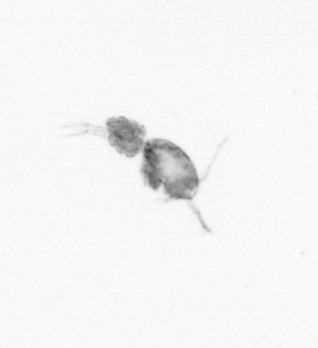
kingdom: Animalia
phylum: Arthropoda
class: Copepoda
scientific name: Copepoda
